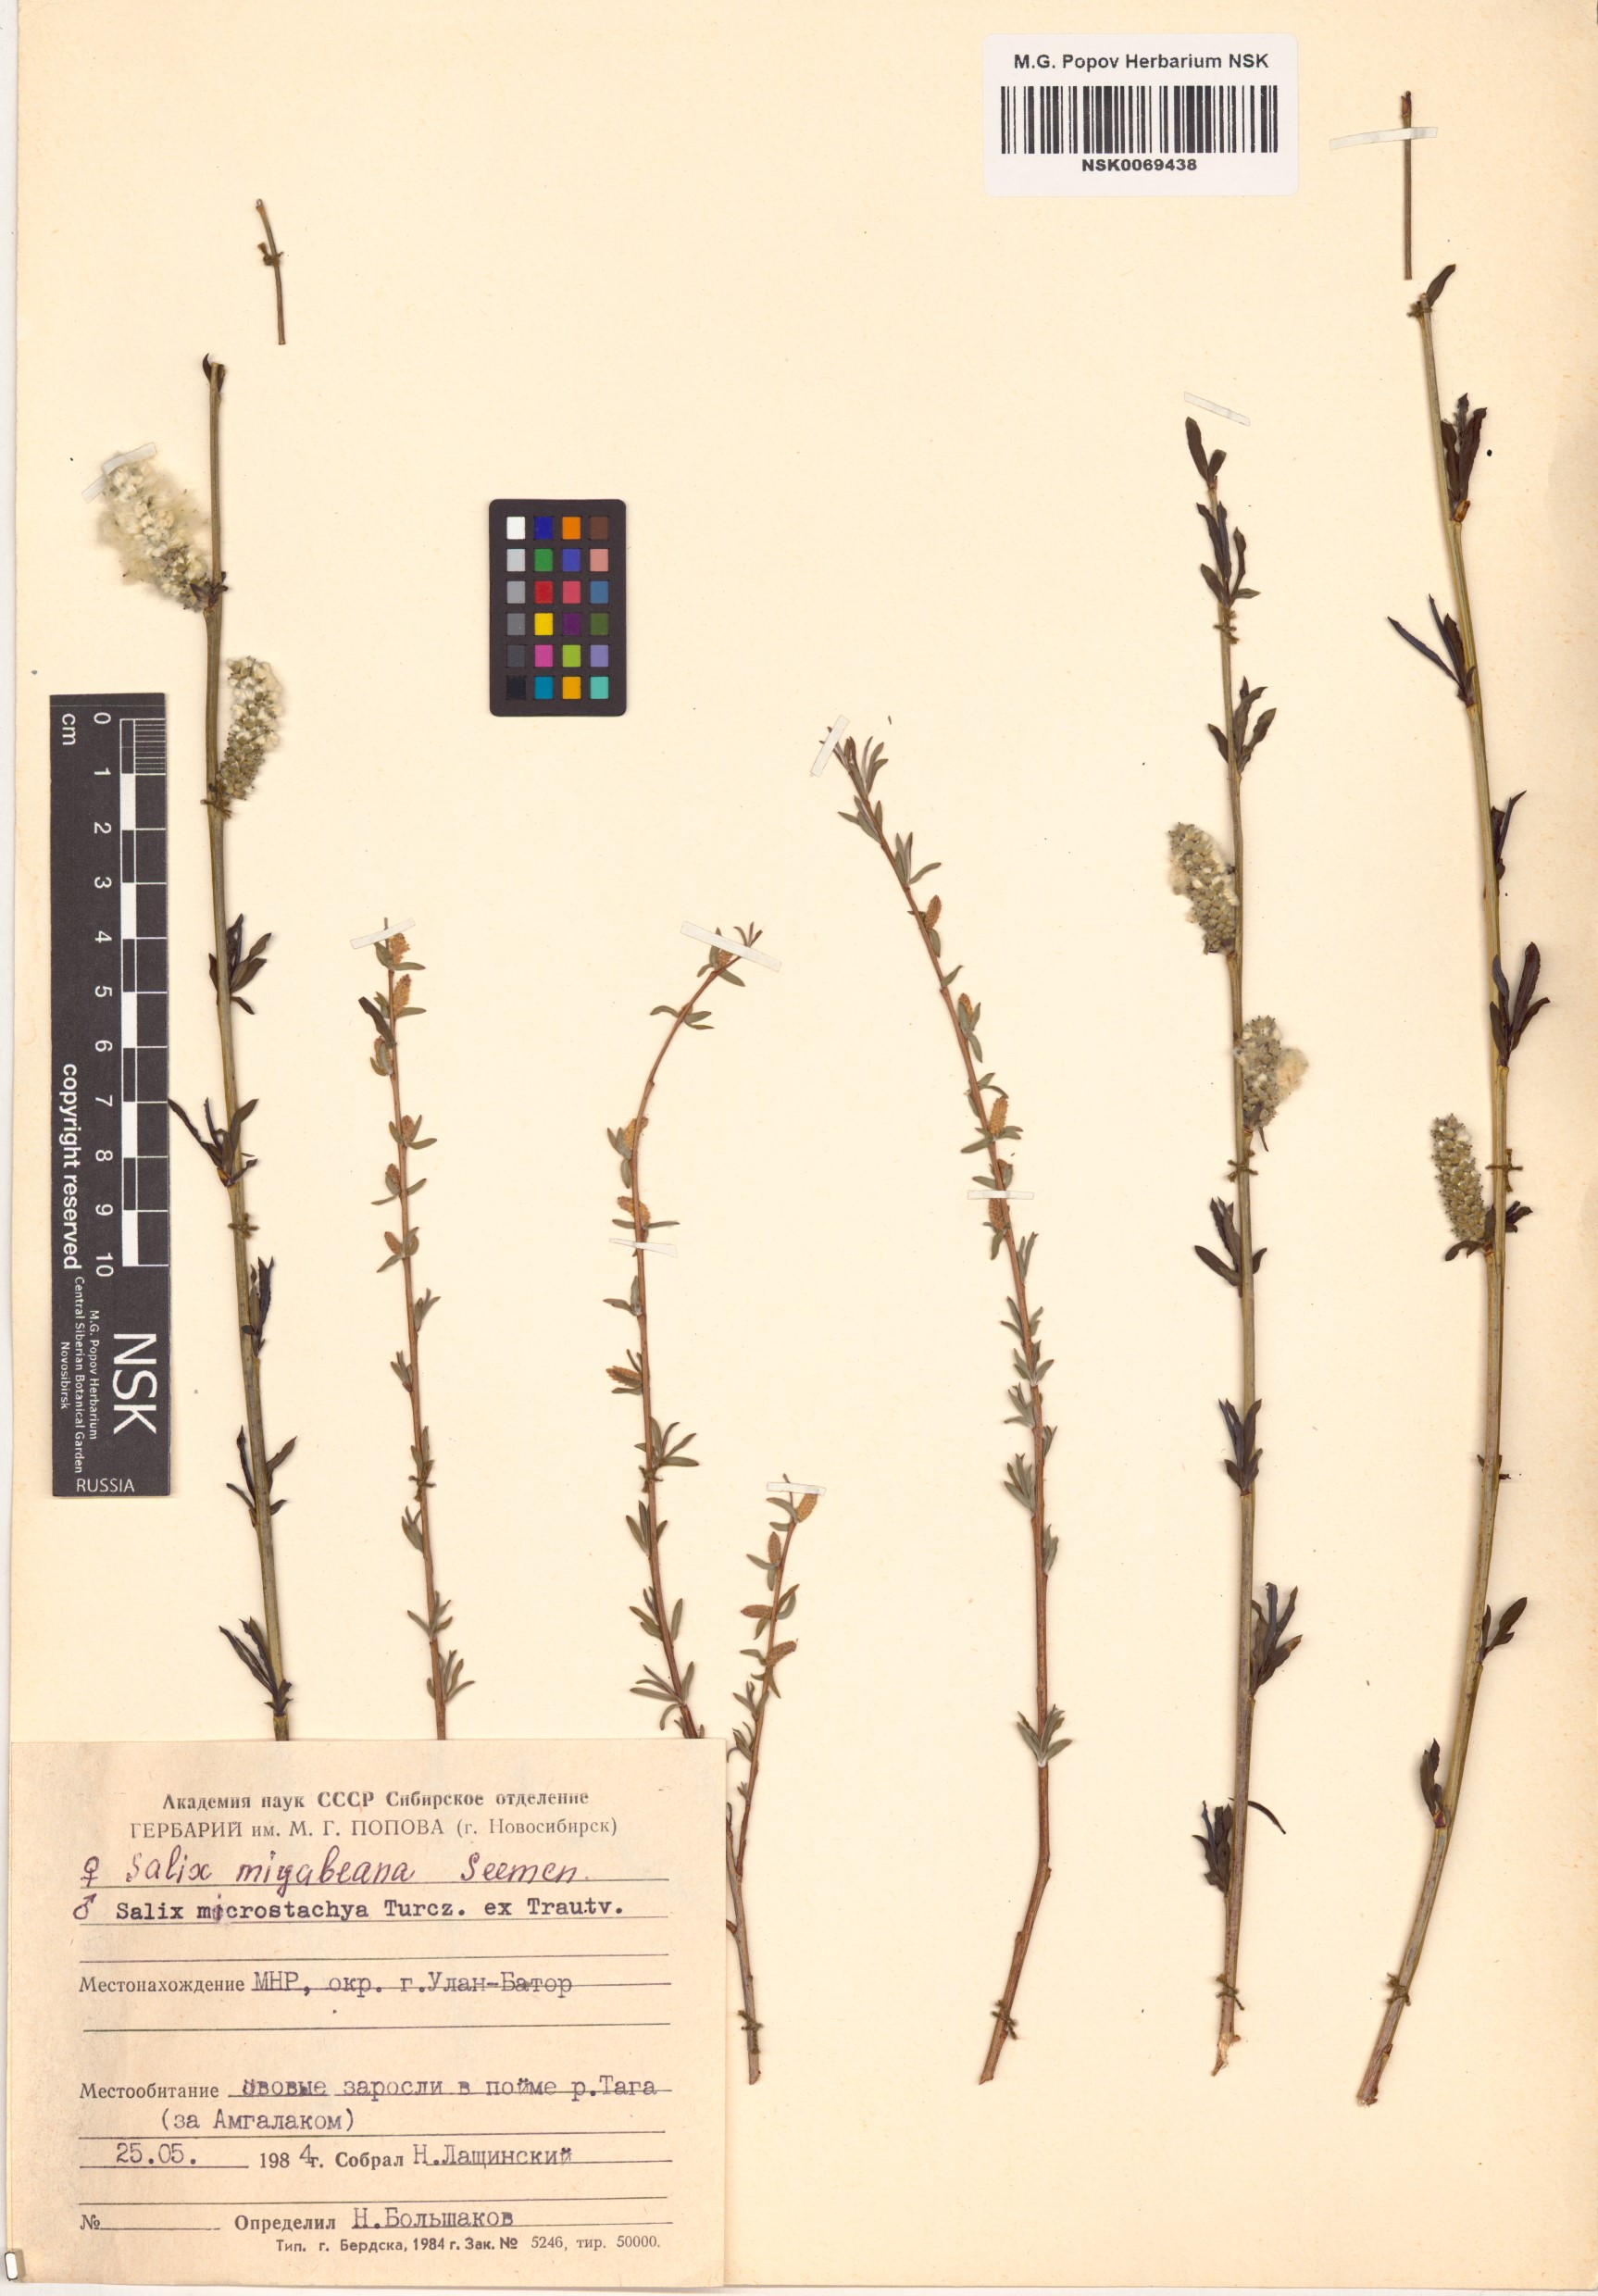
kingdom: Plantae
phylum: Tracheophyta
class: Magnoliopsida
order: Malpighiales
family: Salicaceae
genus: Salix
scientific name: Salix miyabeana
